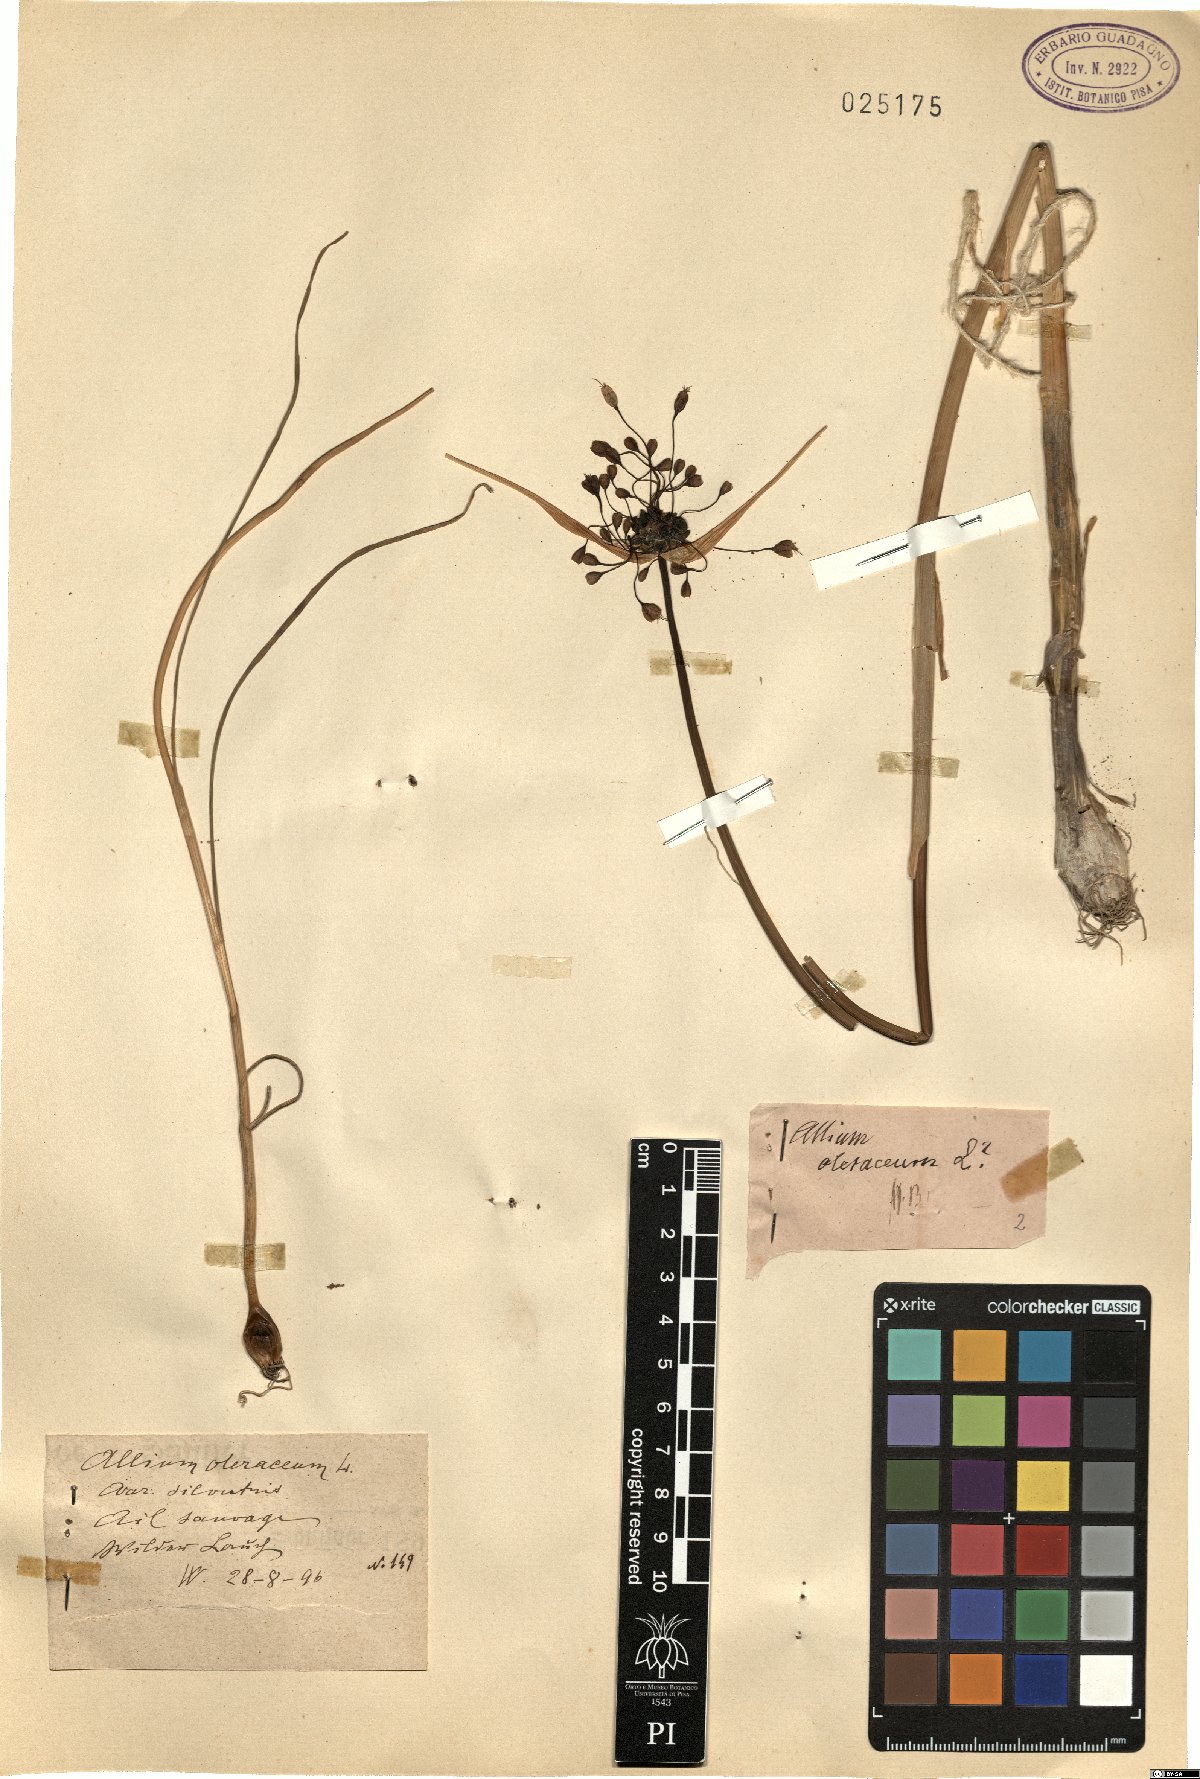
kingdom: Plantae
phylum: Tracheophyta
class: Liliopsida
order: Asparagales
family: Amaryllidaceae
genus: Allium
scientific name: Allium oleraceum
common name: Field garlic
